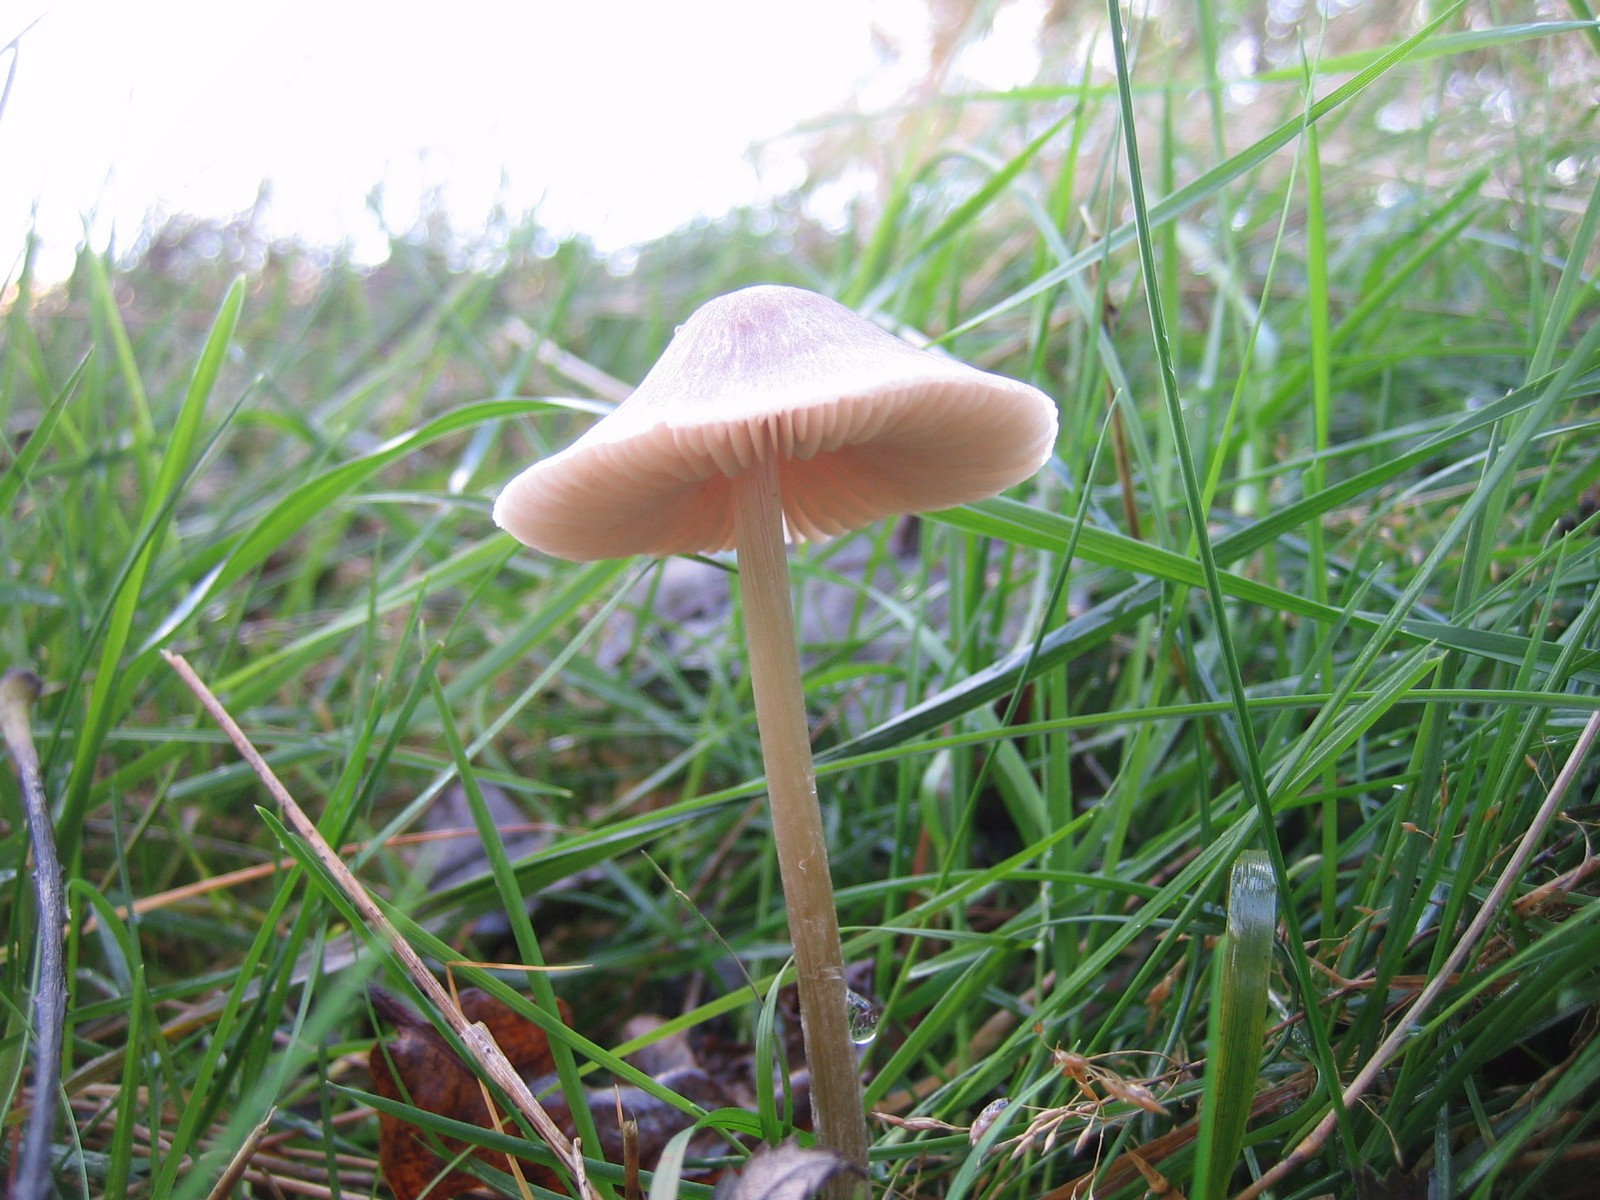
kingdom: Fungi
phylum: Basidiomycota
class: Agaricomycetes
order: Agaricales
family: Entolomataceae
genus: Entoloma
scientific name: Entoloma
